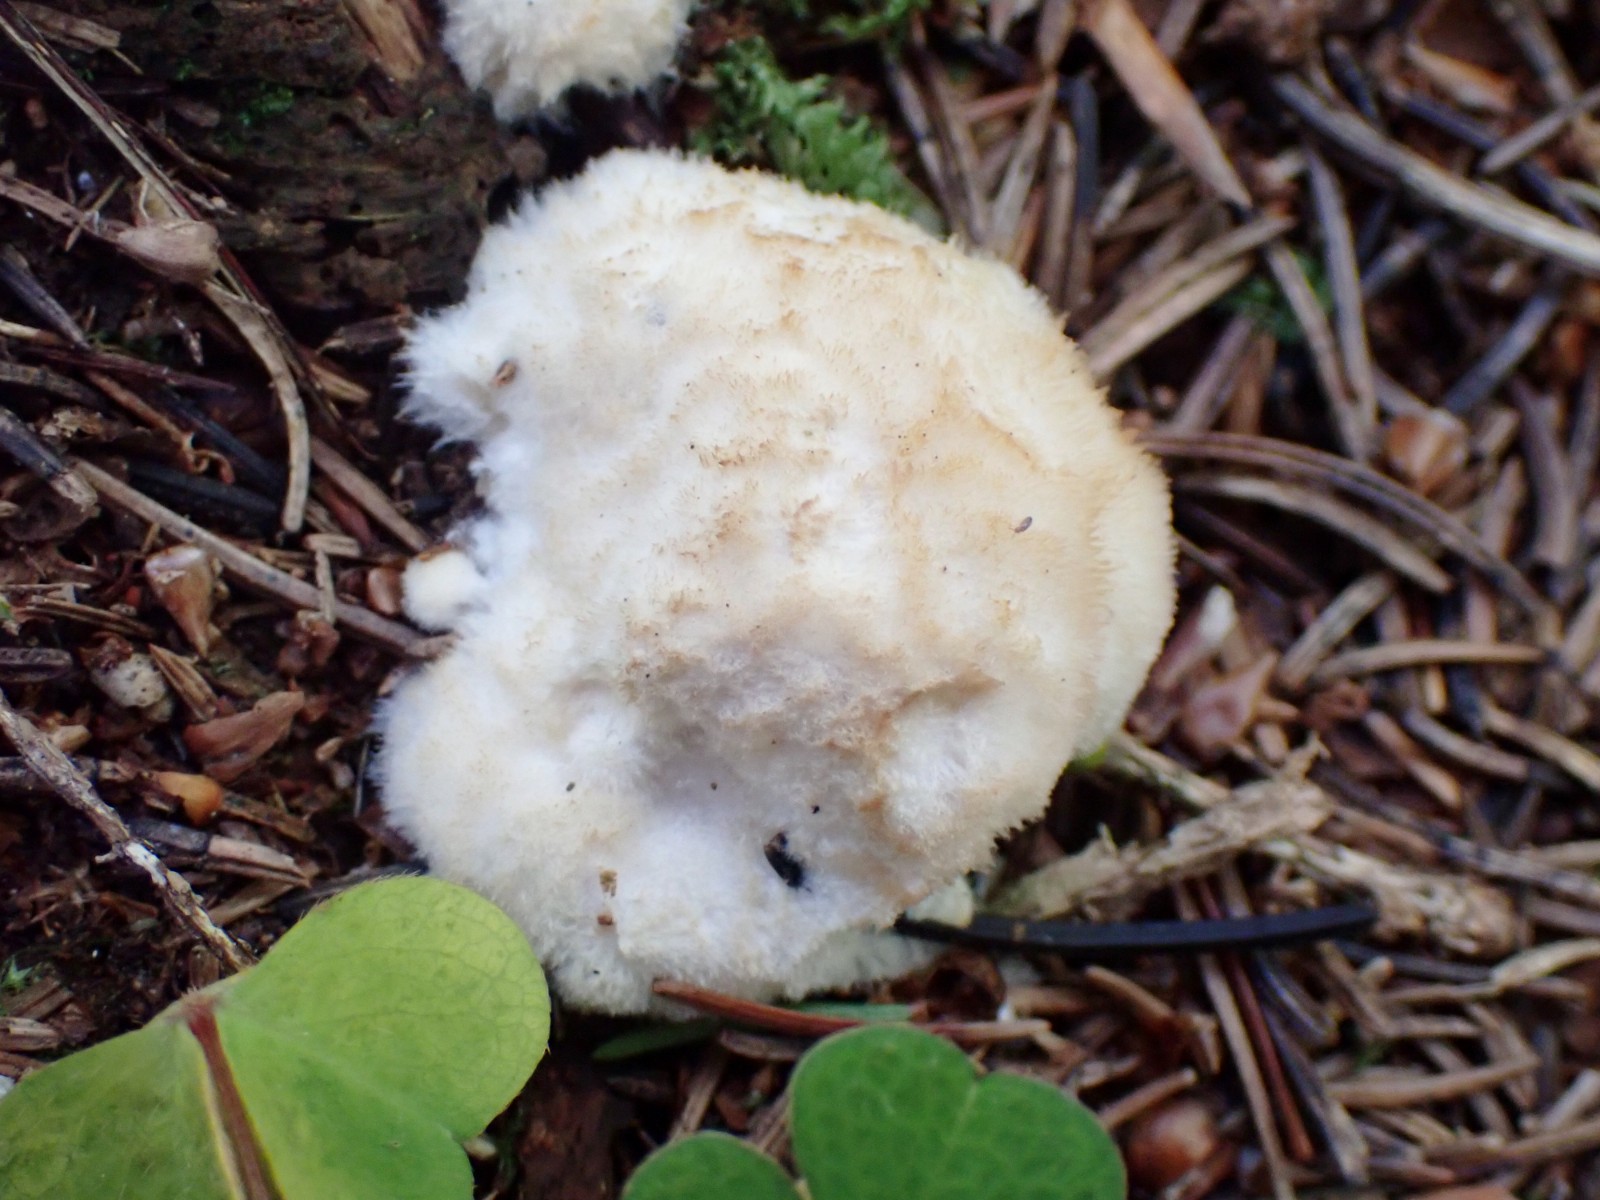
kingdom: Fungi
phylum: Basidiomycota
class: Agaricomycetes
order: Polyporales
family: Dacryobolaceae
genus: Postia
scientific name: Postia ptychogaster
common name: støvende kødporesvamp
